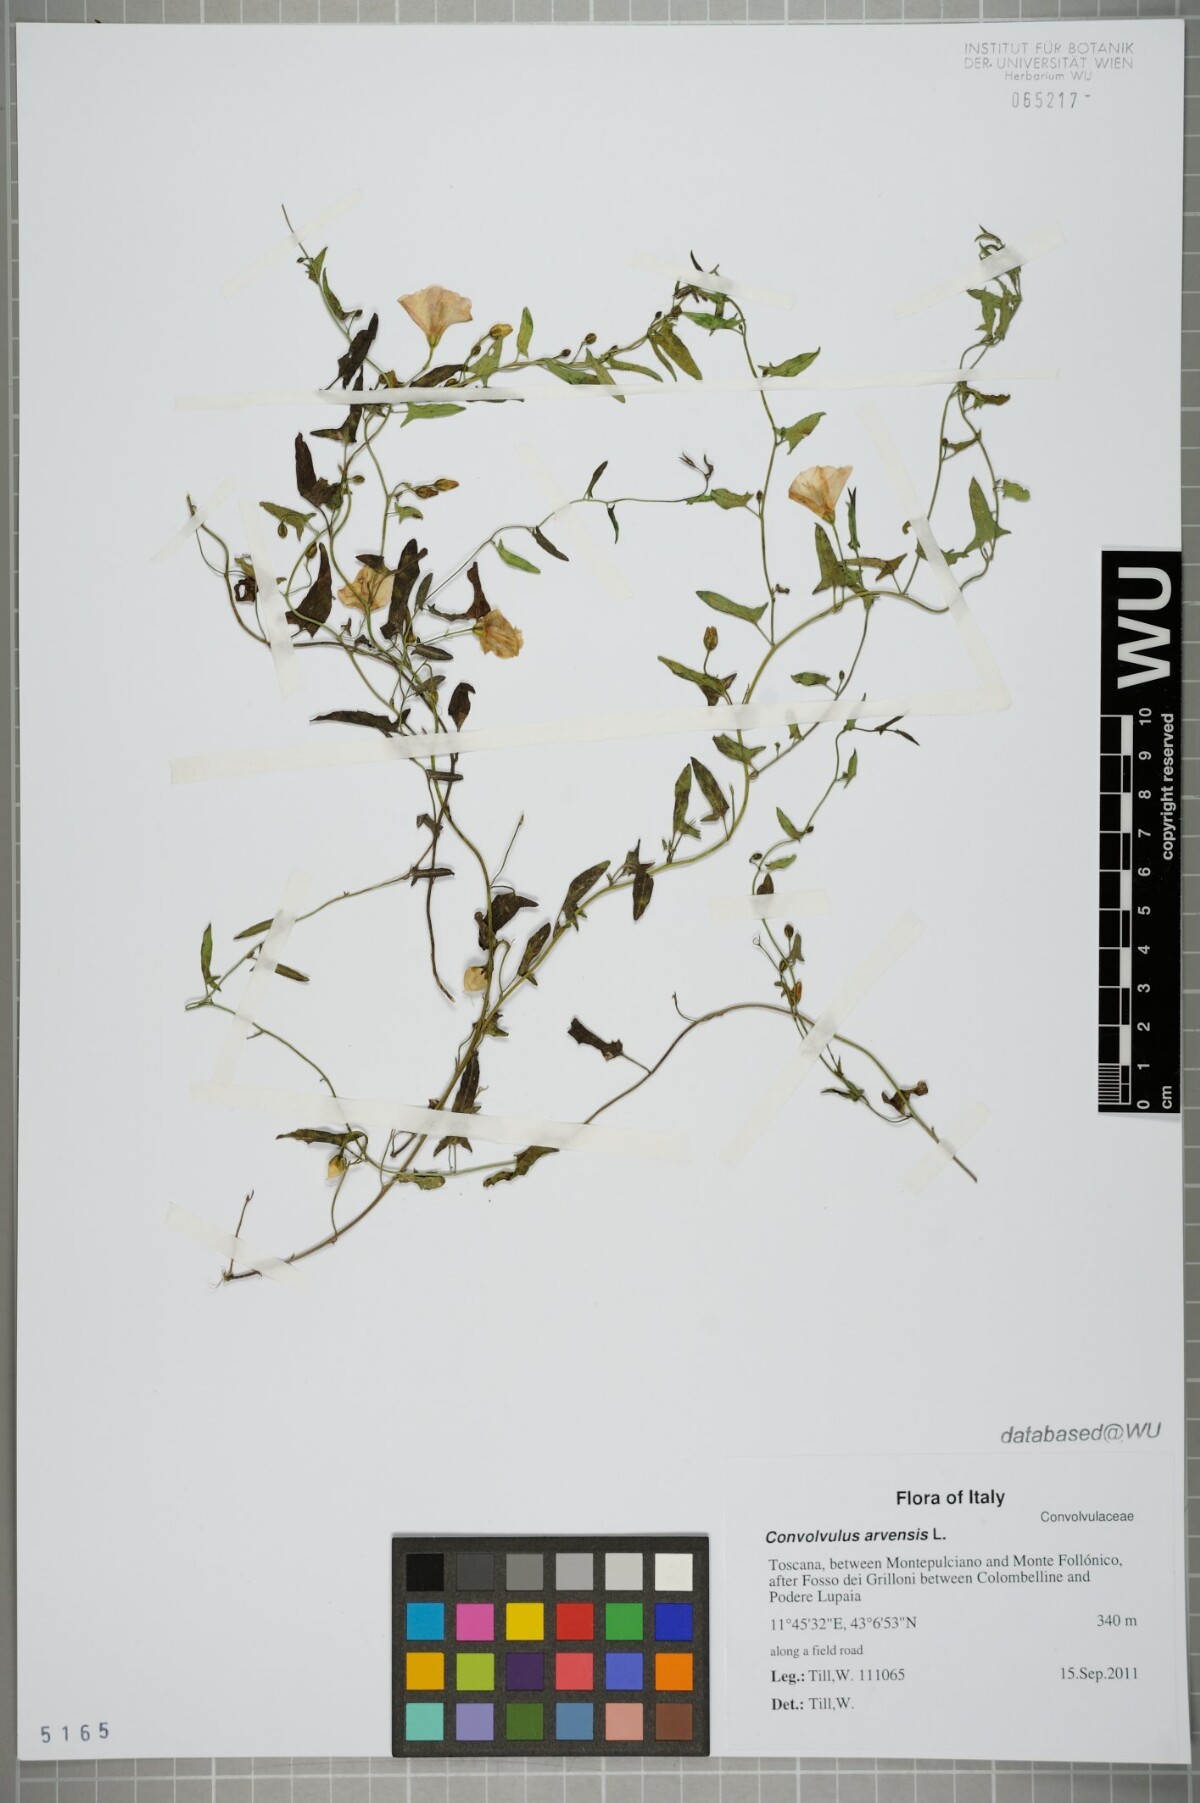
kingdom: Plantae
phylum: Tracheophyta
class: Magnoliopsida
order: Solanales
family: Convolvulaceae
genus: Convolvulus
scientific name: Convolvulus arvensis
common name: Field bindweed
